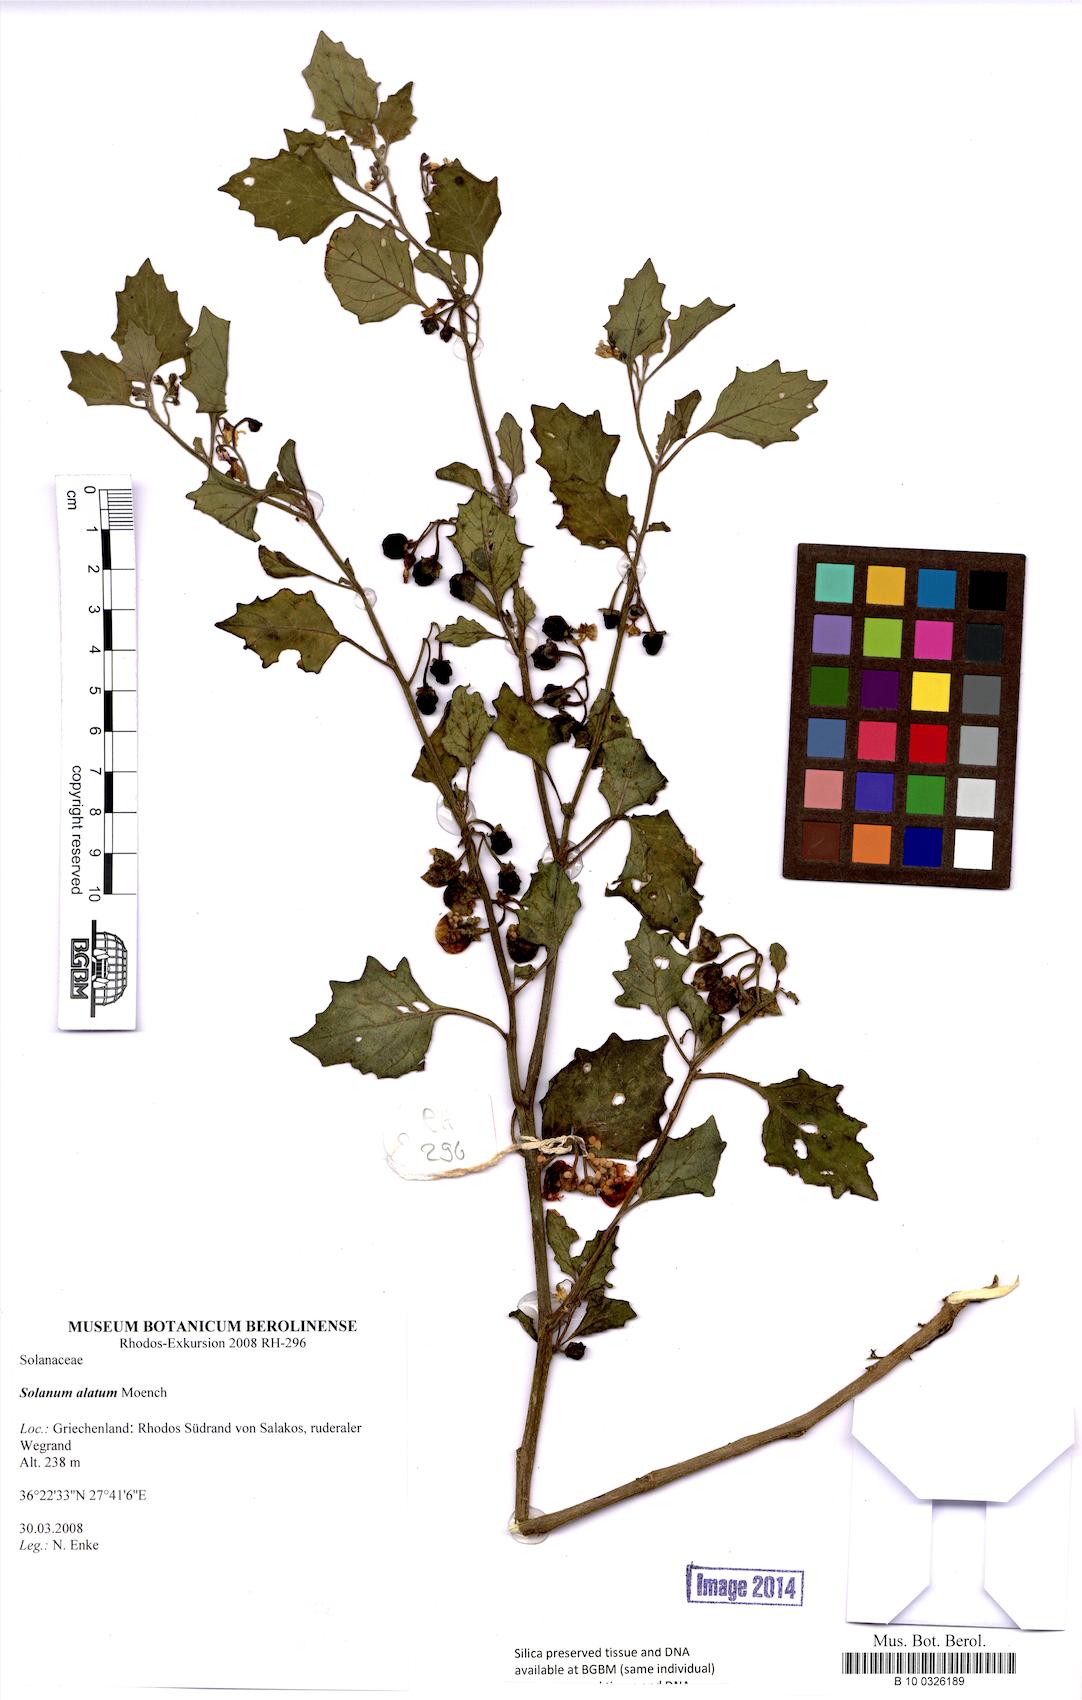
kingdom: Plantae
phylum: Tracheophyta
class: Magnoliopsida
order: Solanales
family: Solanaceae
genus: Solanum
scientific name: Solanum alatum
